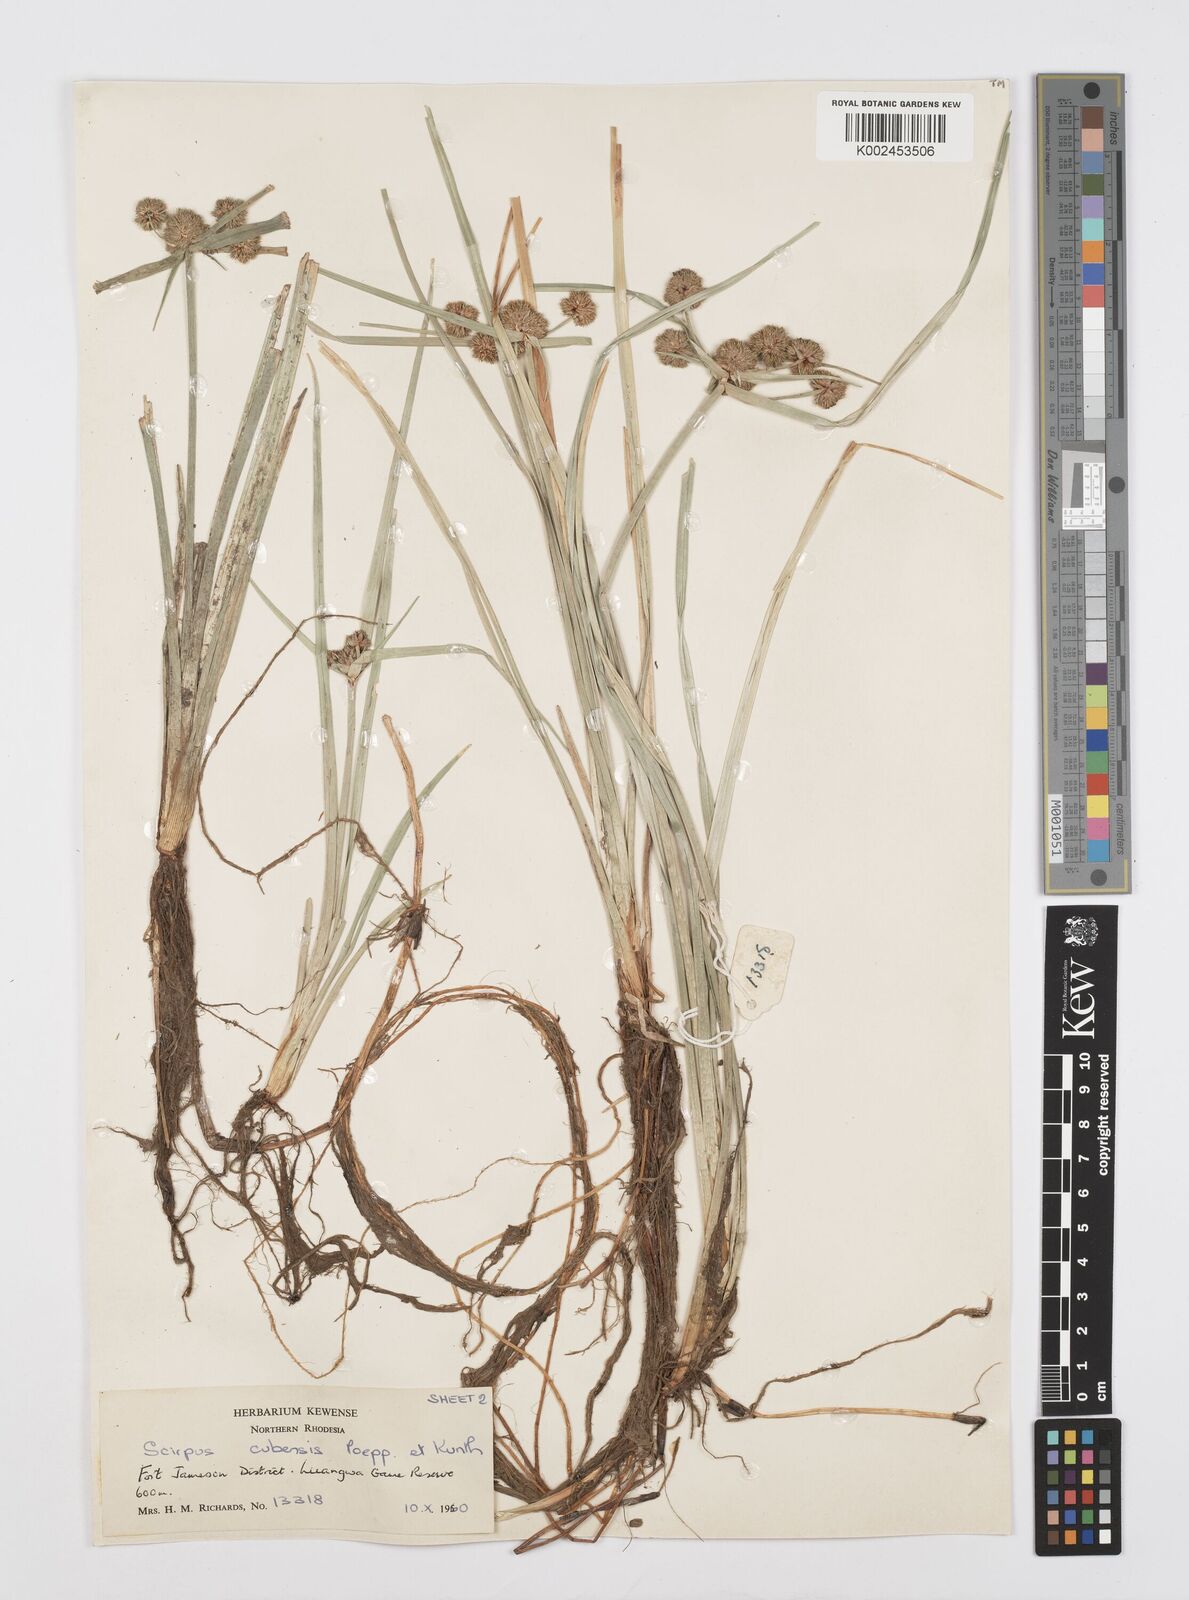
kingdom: Plantae
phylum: Tracheophyta
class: Liliopsida
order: Poales
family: Cyperaceae
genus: Cyperus
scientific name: Cyperus elegans
